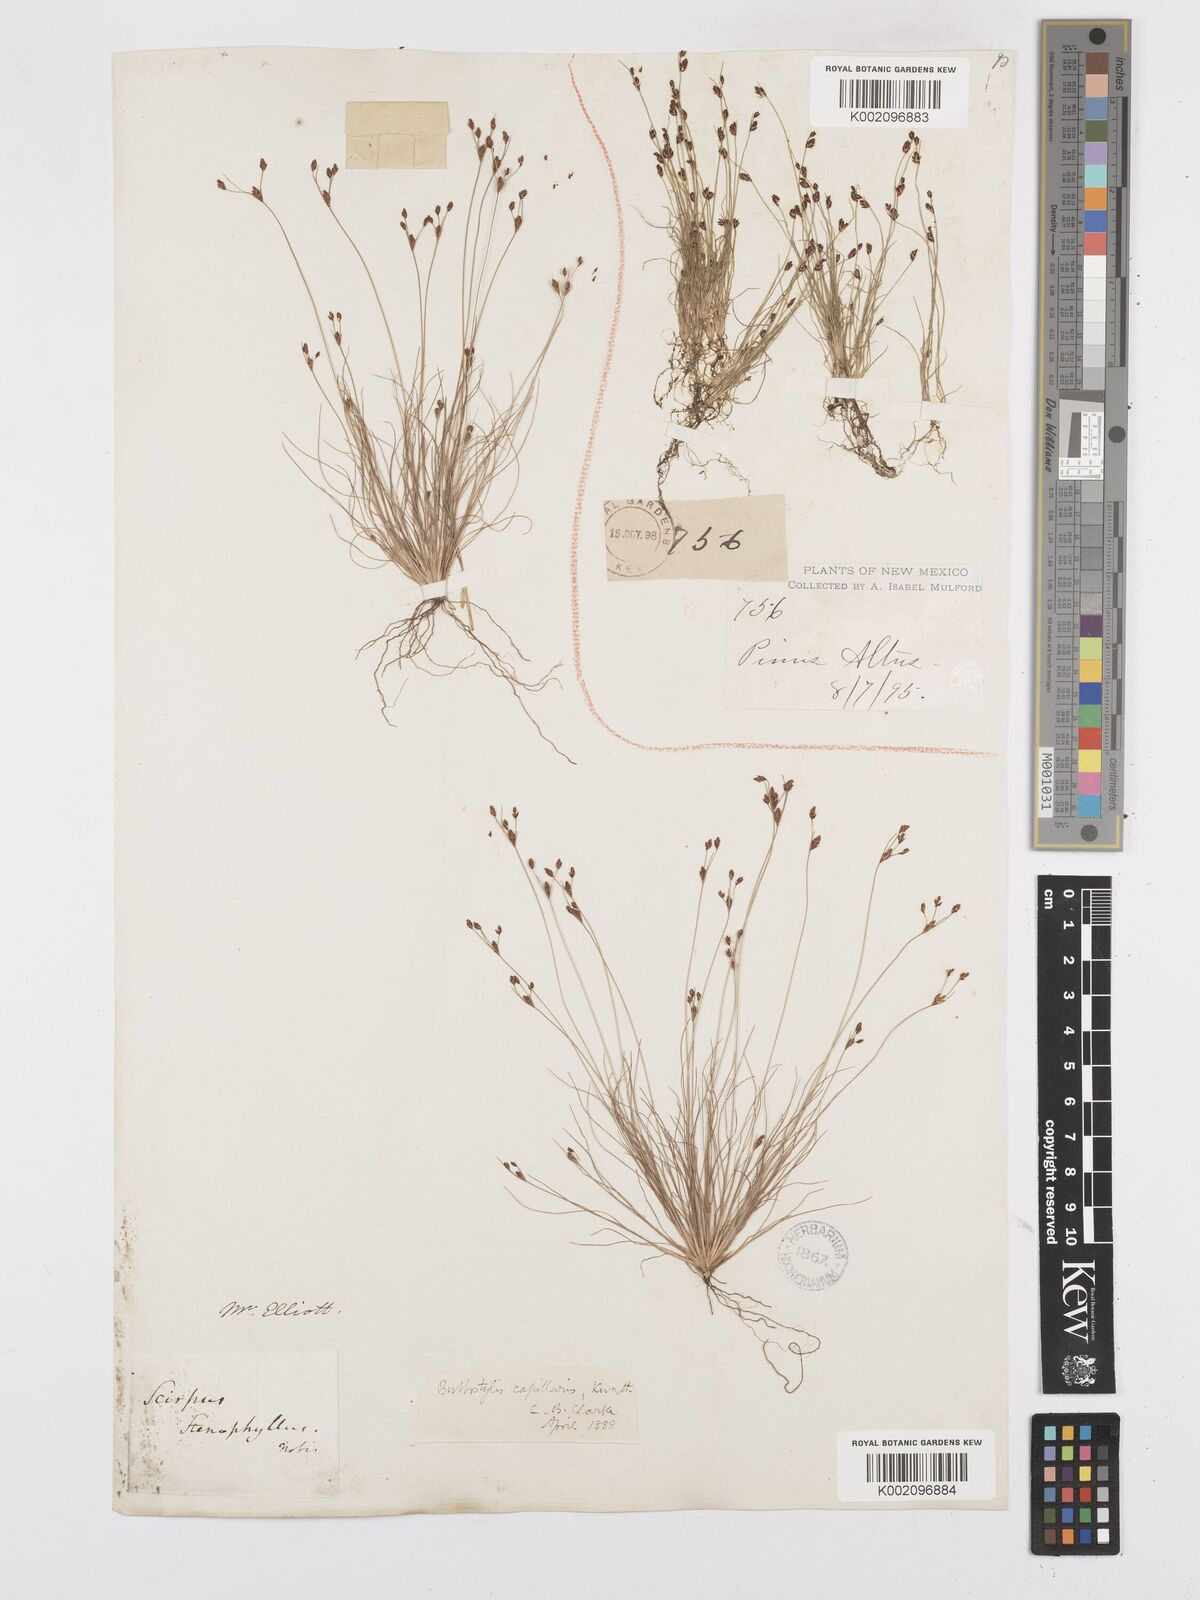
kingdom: Plantae
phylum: Tracheophyta
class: Liliopsida
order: Poales
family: Cyperaceae
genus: Bulbostylis
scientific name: Bulbostylis capillaris
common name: Densetuft hairsedge
